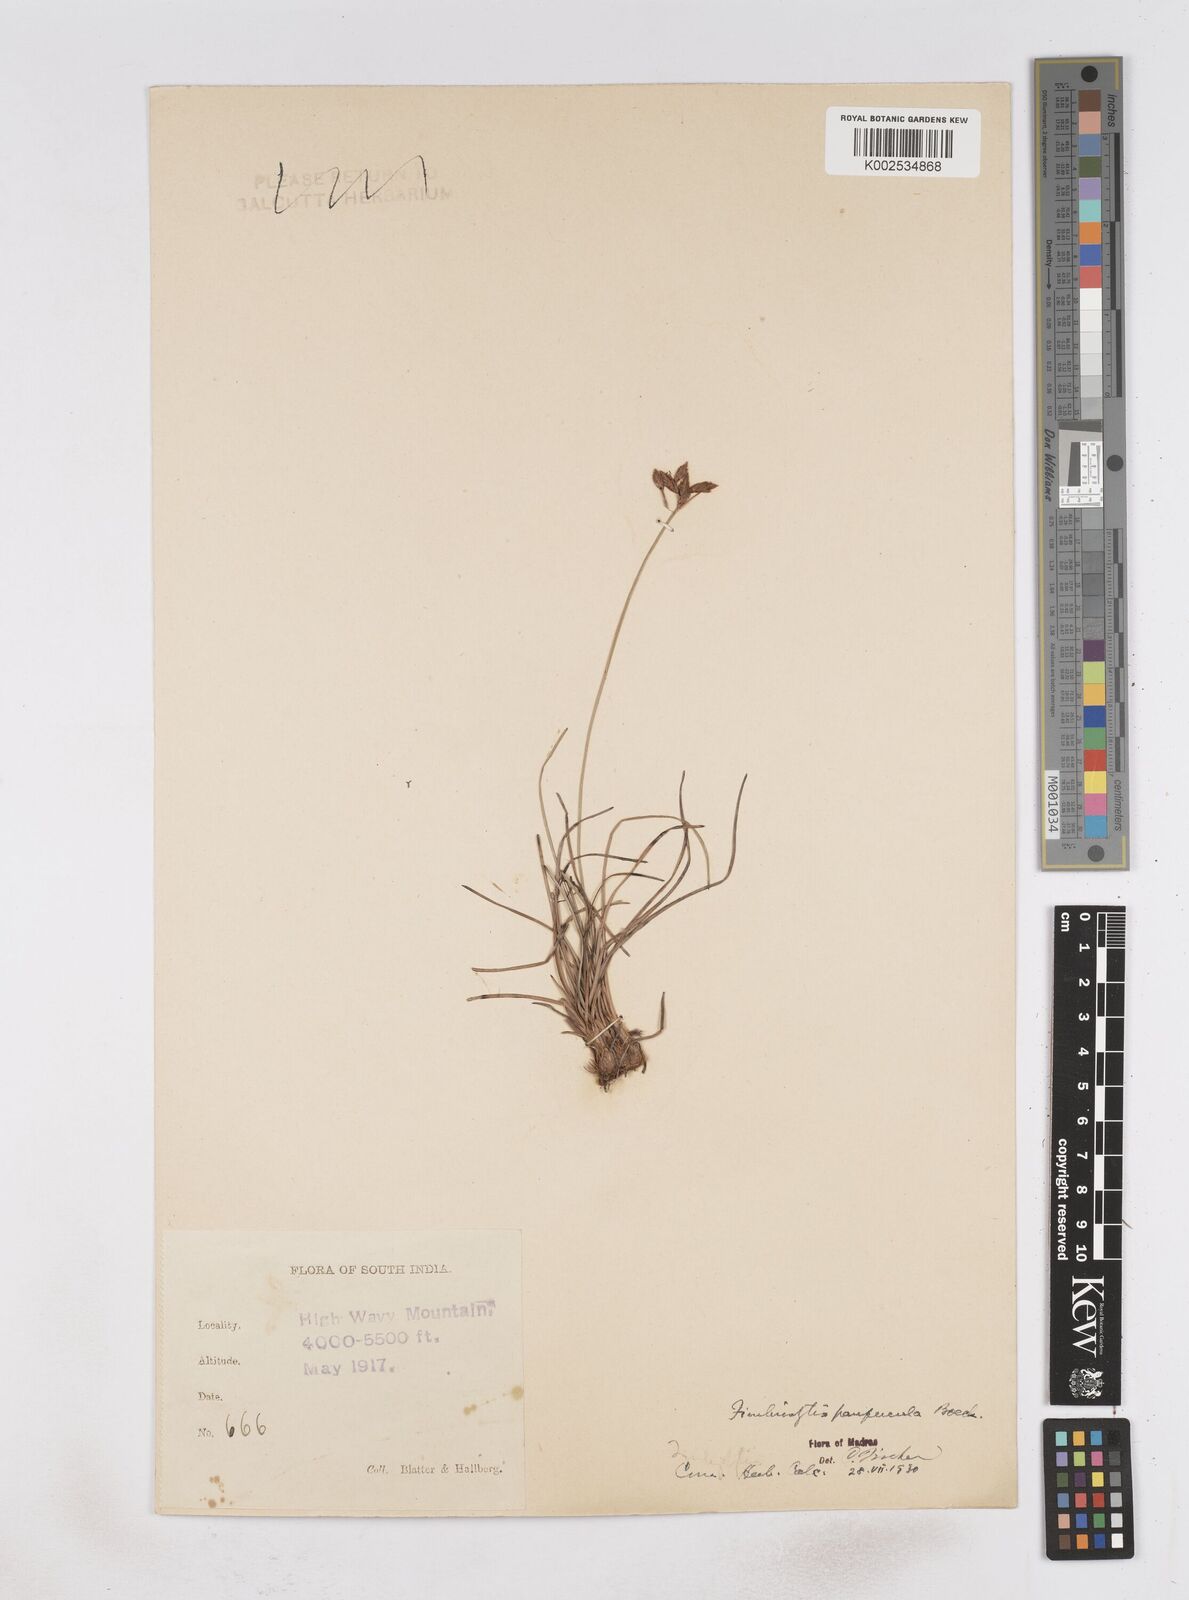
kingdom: Plantae
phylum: Tracheophyta
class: Liliopsida
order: Poales
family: Cyperaceae
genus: Fimbristylis
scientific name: Fimbristylis paupercula
